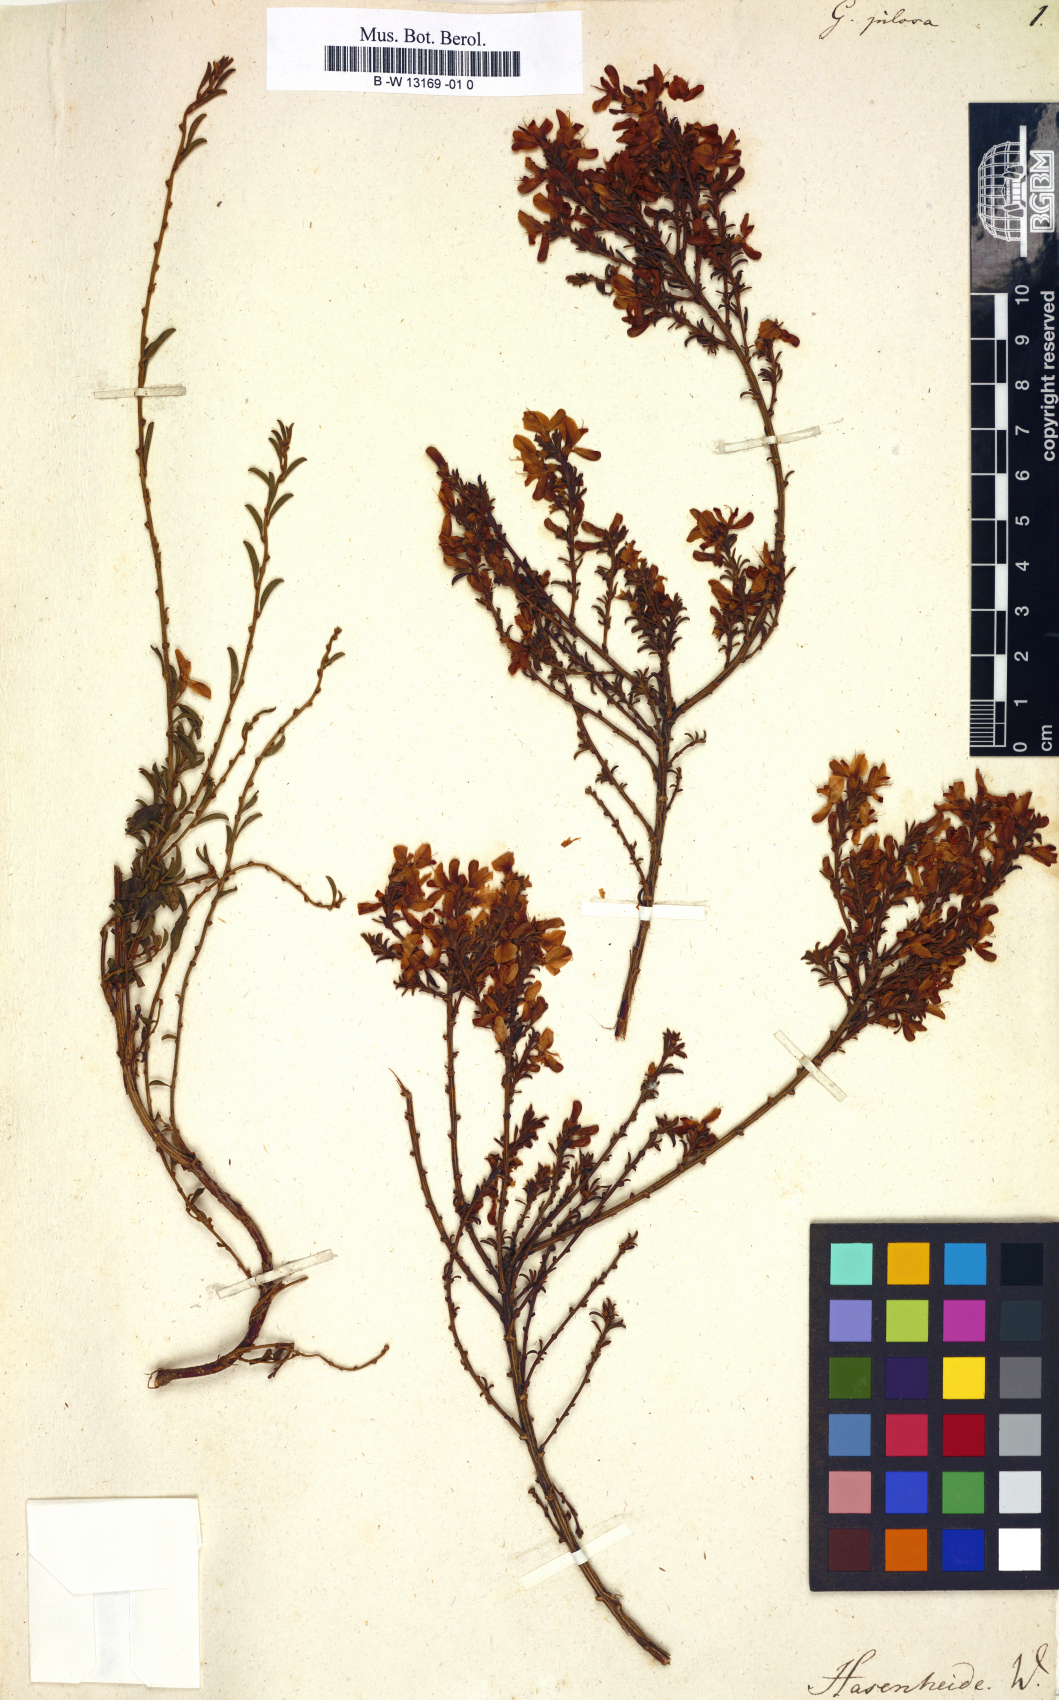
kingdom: Plantae
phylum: Tracheophyta
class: Magnoliopsida
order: Fabales
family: Fabaceae
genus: Genista
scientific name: Genista pilosa
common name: Hairy greenweed
